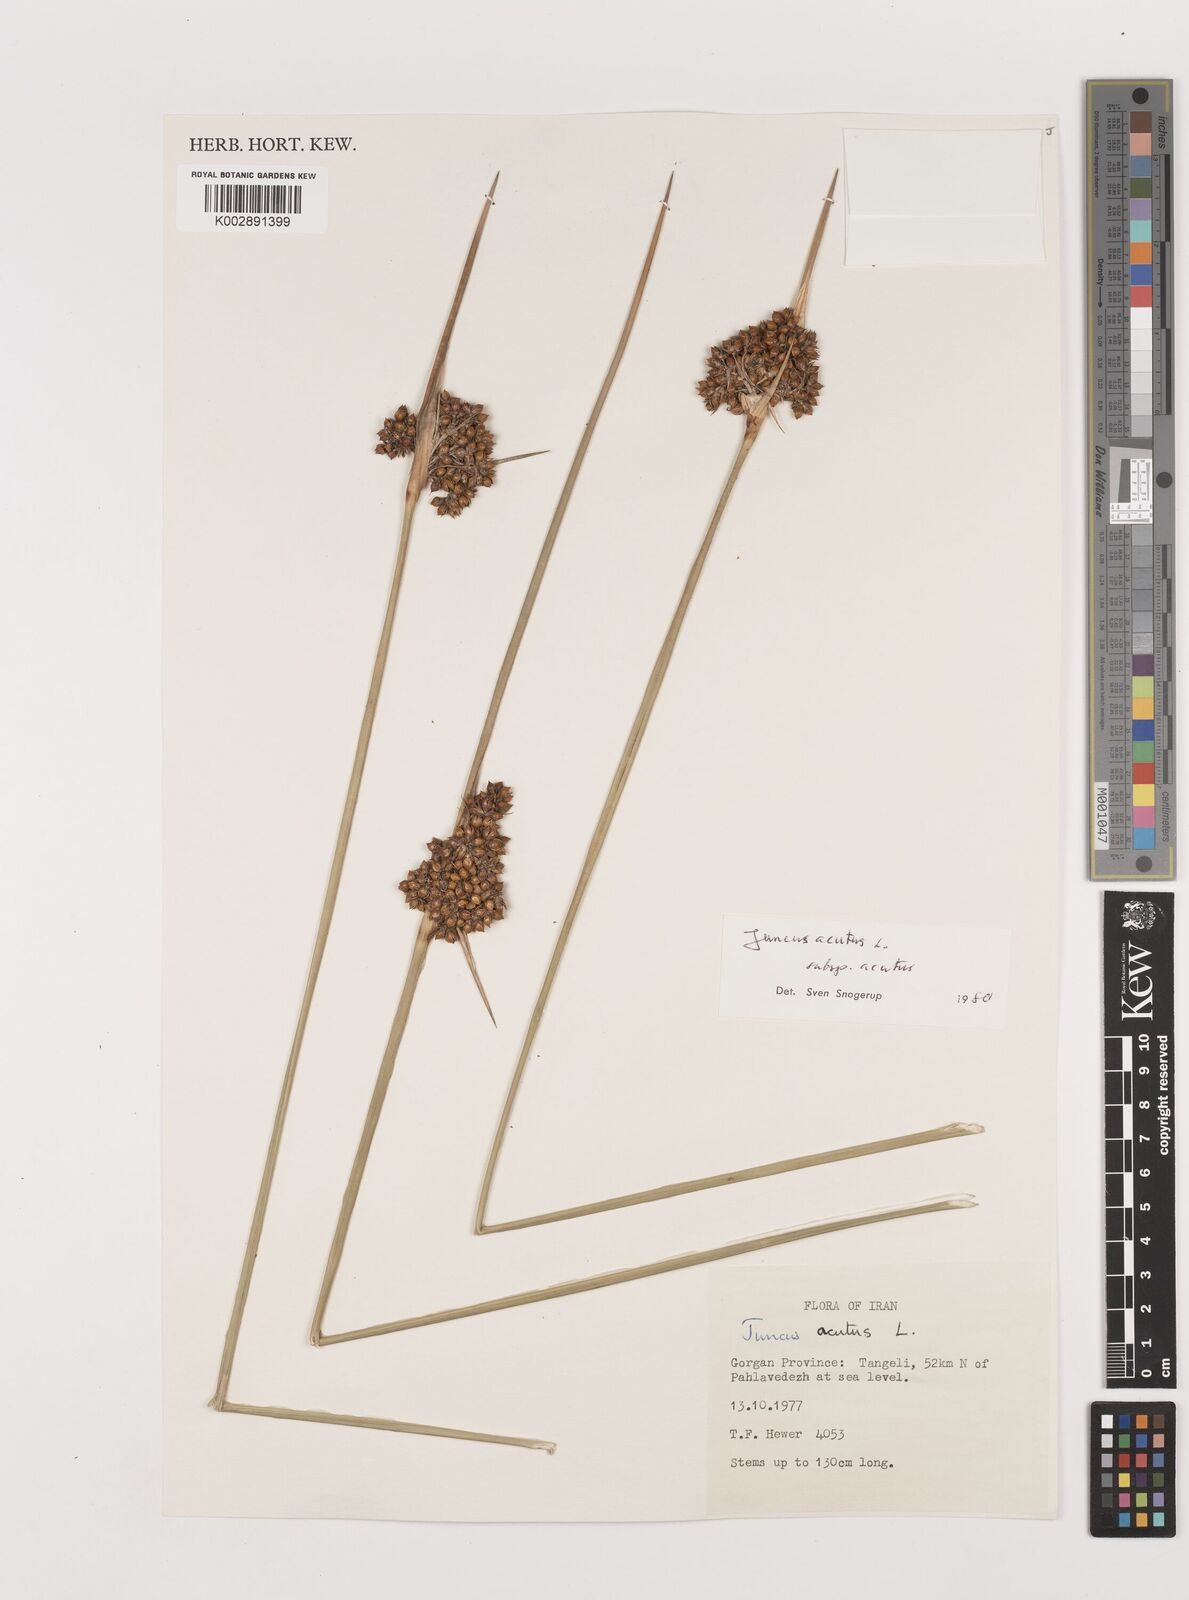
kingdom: Plantae
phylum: Tracheophyta
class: Liliopsida
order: Poales
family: Juncaceae
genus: Juncus
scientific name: Juncus acutus
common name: Sharp rush
